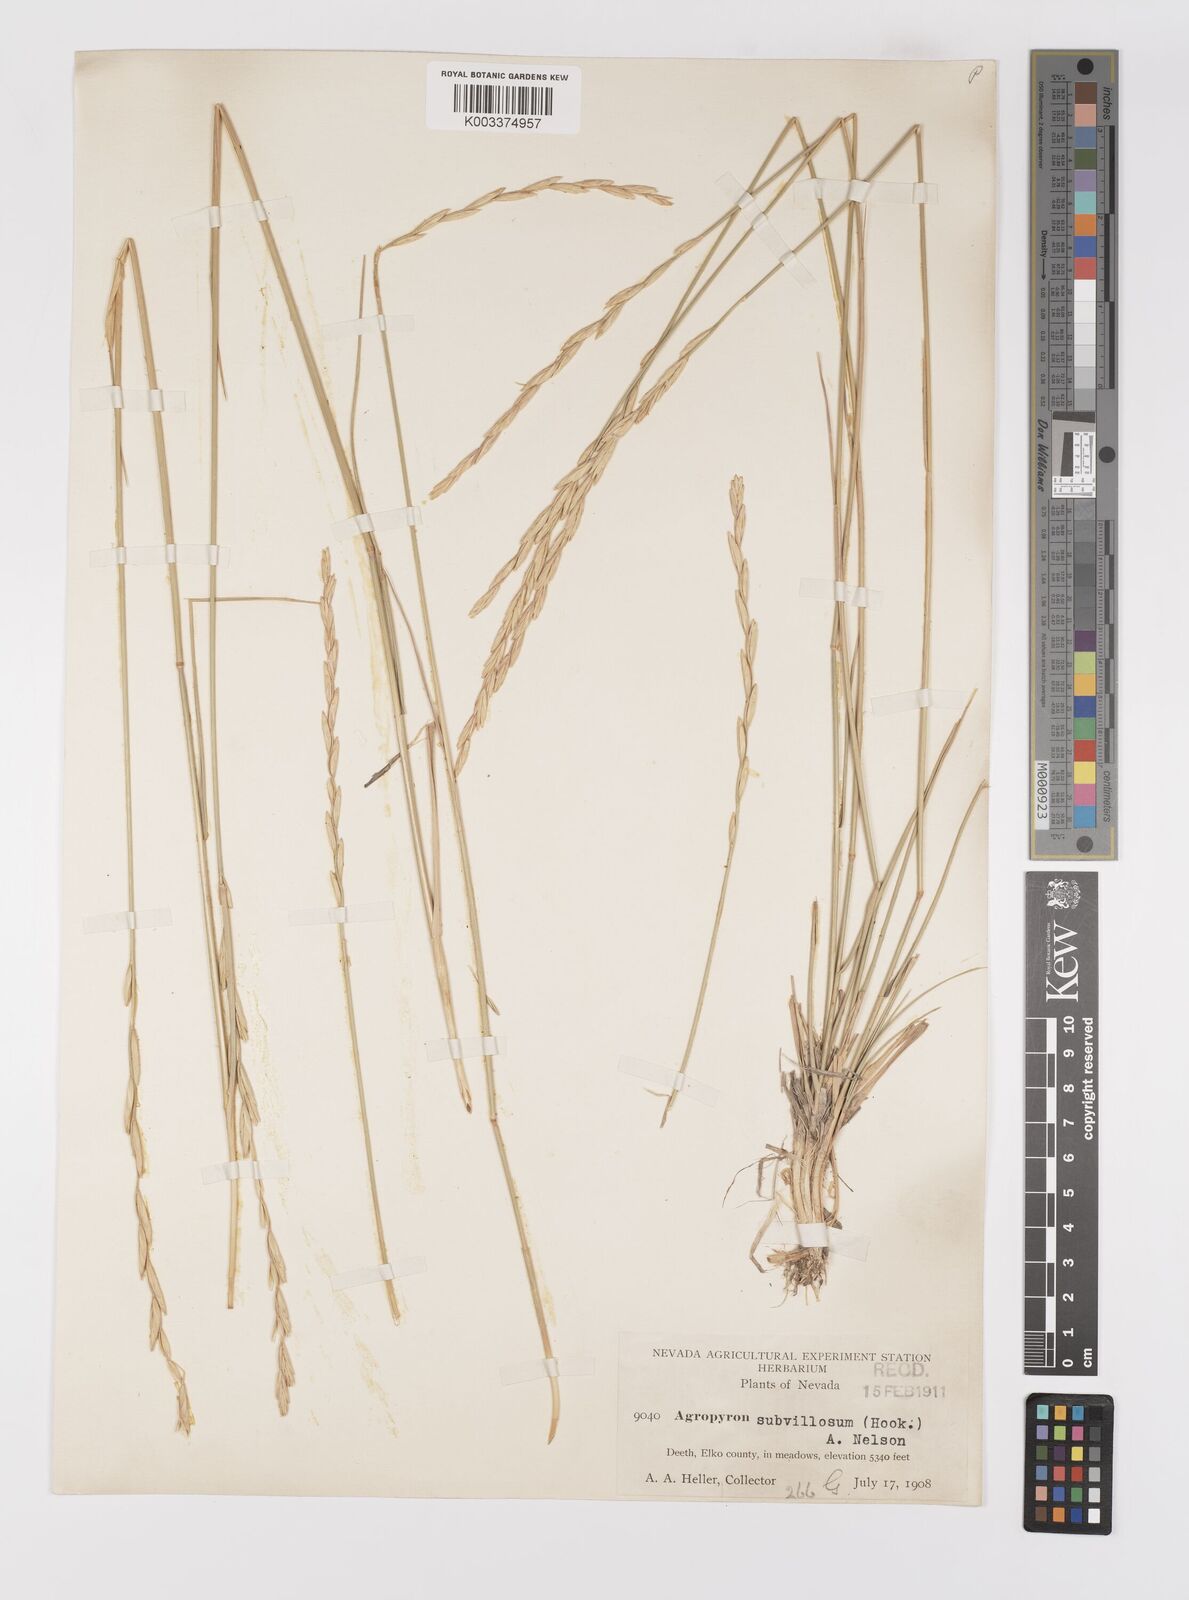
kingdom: Plantae
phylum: Tracheophyta
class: Liliopsida
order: Poales
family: Poaceae
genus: Elymus
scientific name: Elymus lanceolatus
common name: Thick-spike wheatgrass
